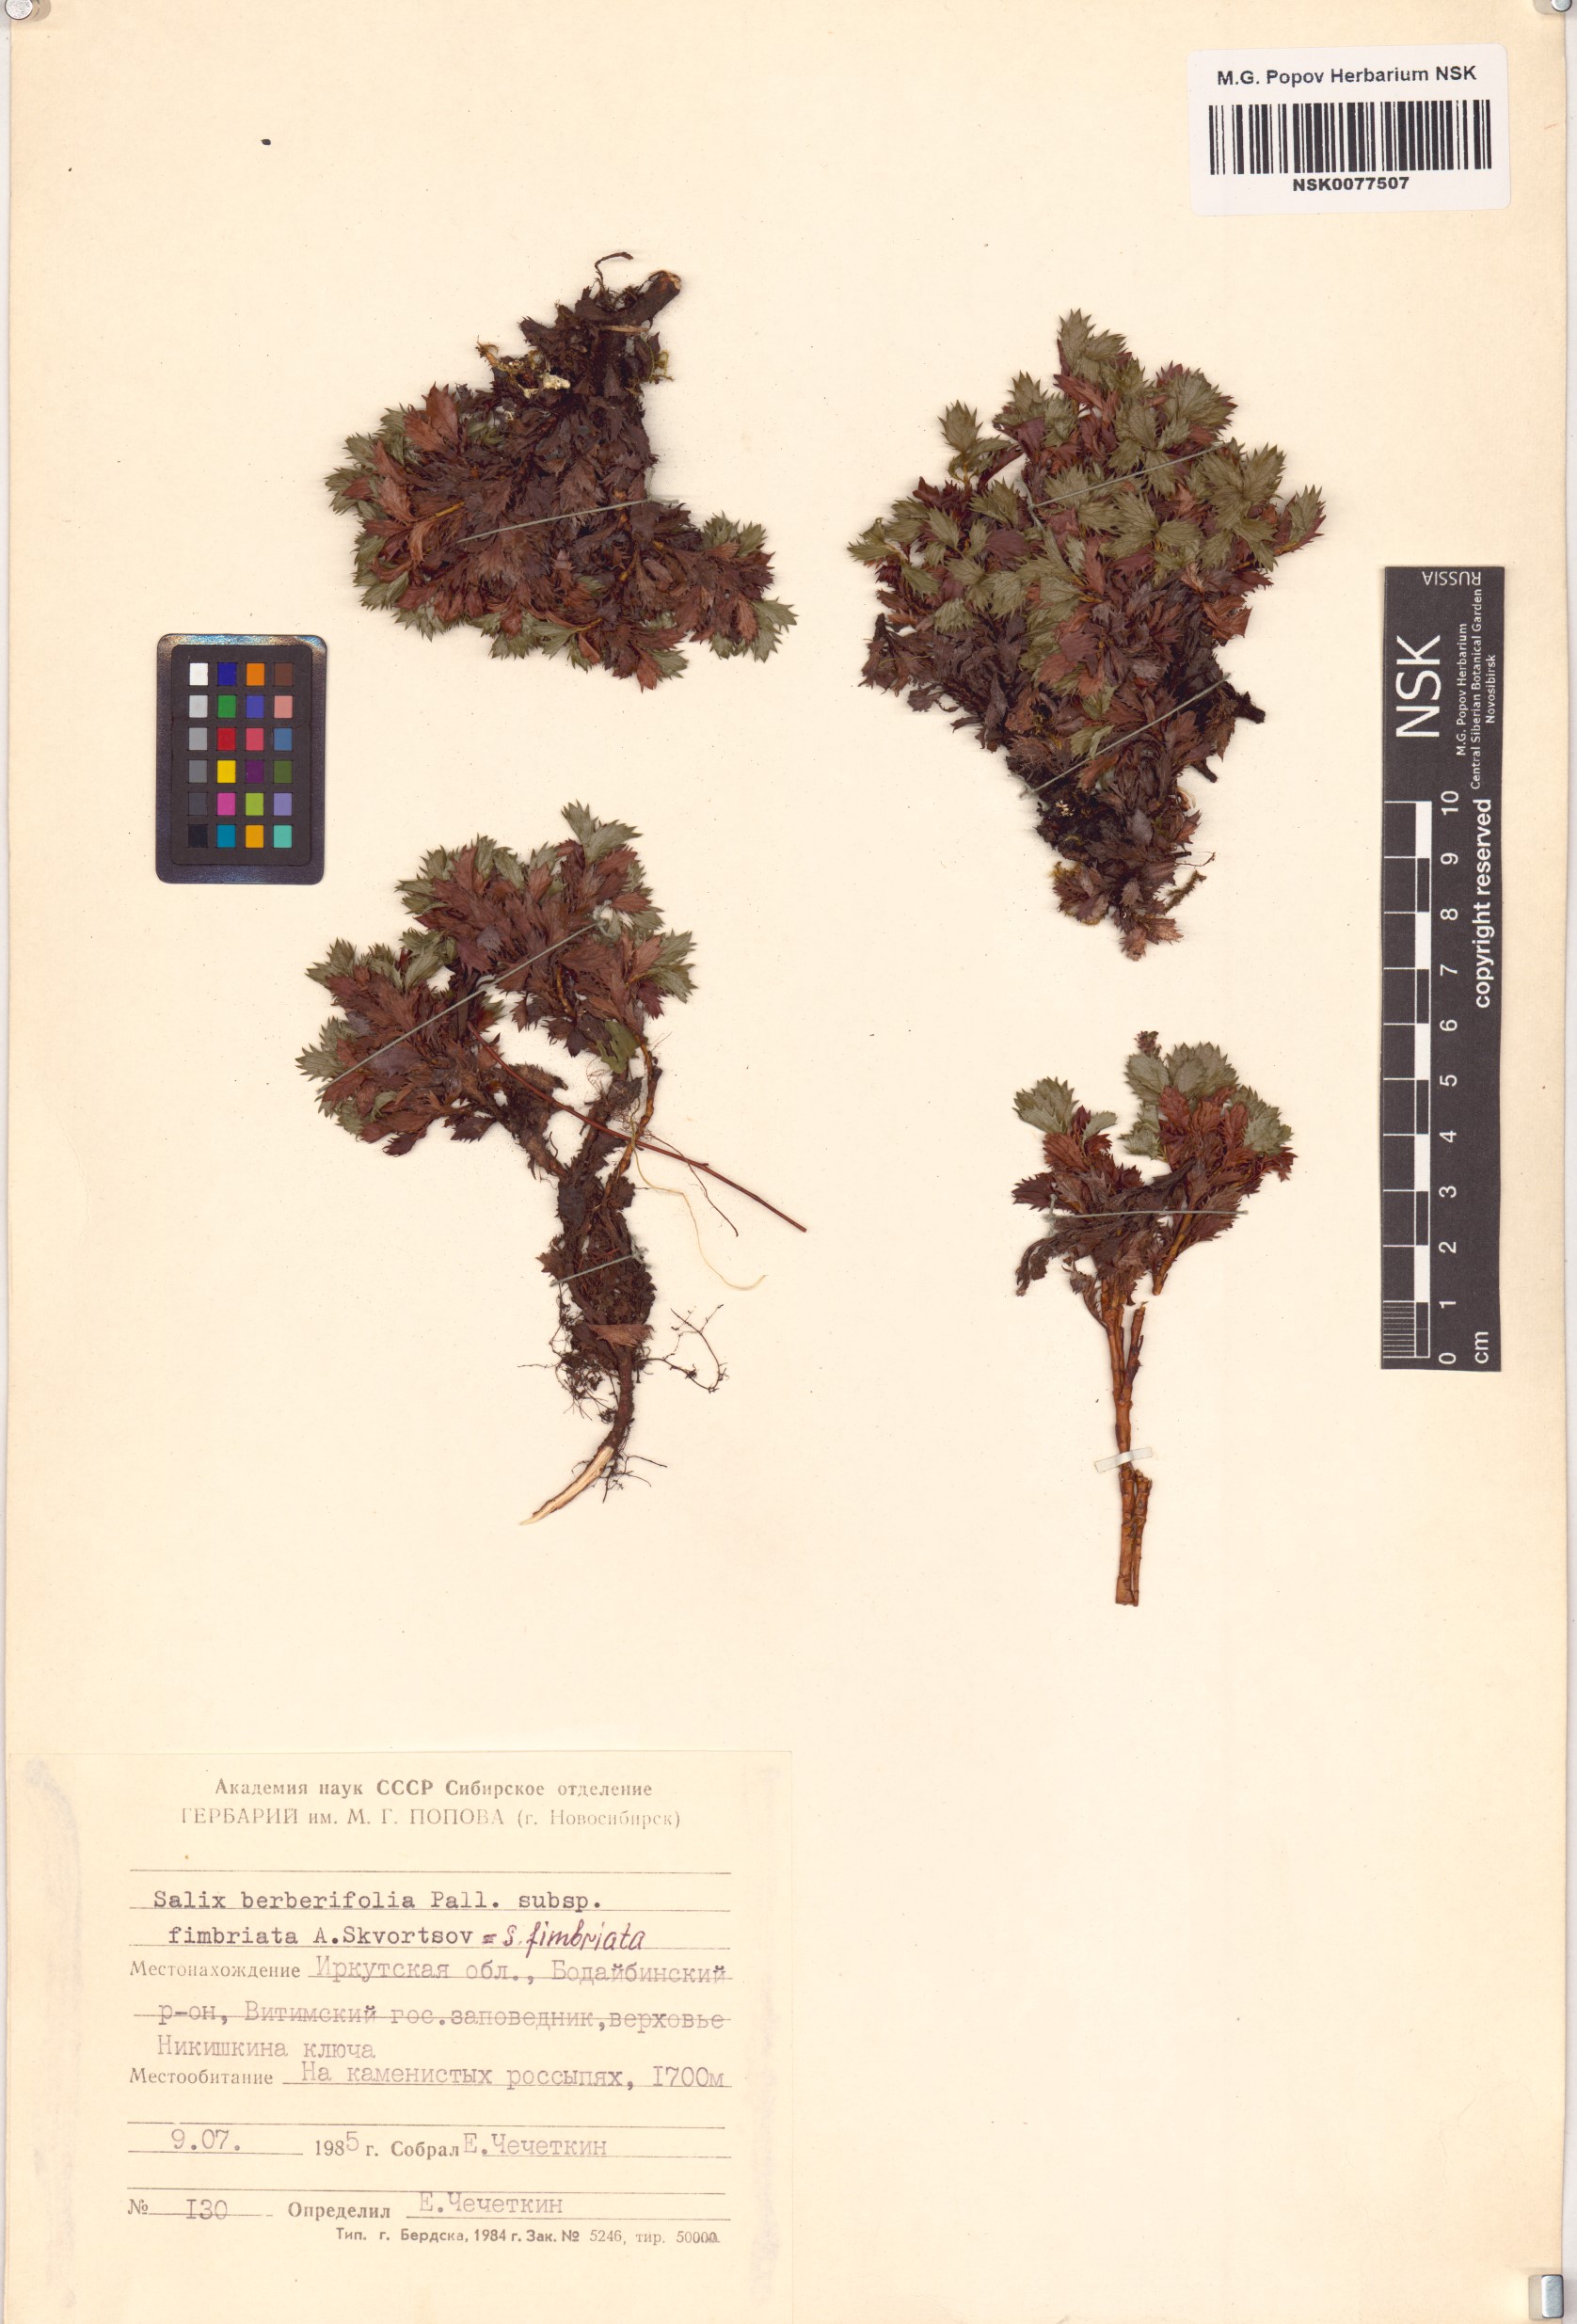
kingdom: Plantae
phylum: Tracheophyta
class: Magnoliopsida
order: Malpighiales
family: Salicaceae
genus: Salix
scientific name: Salix berberifolia
